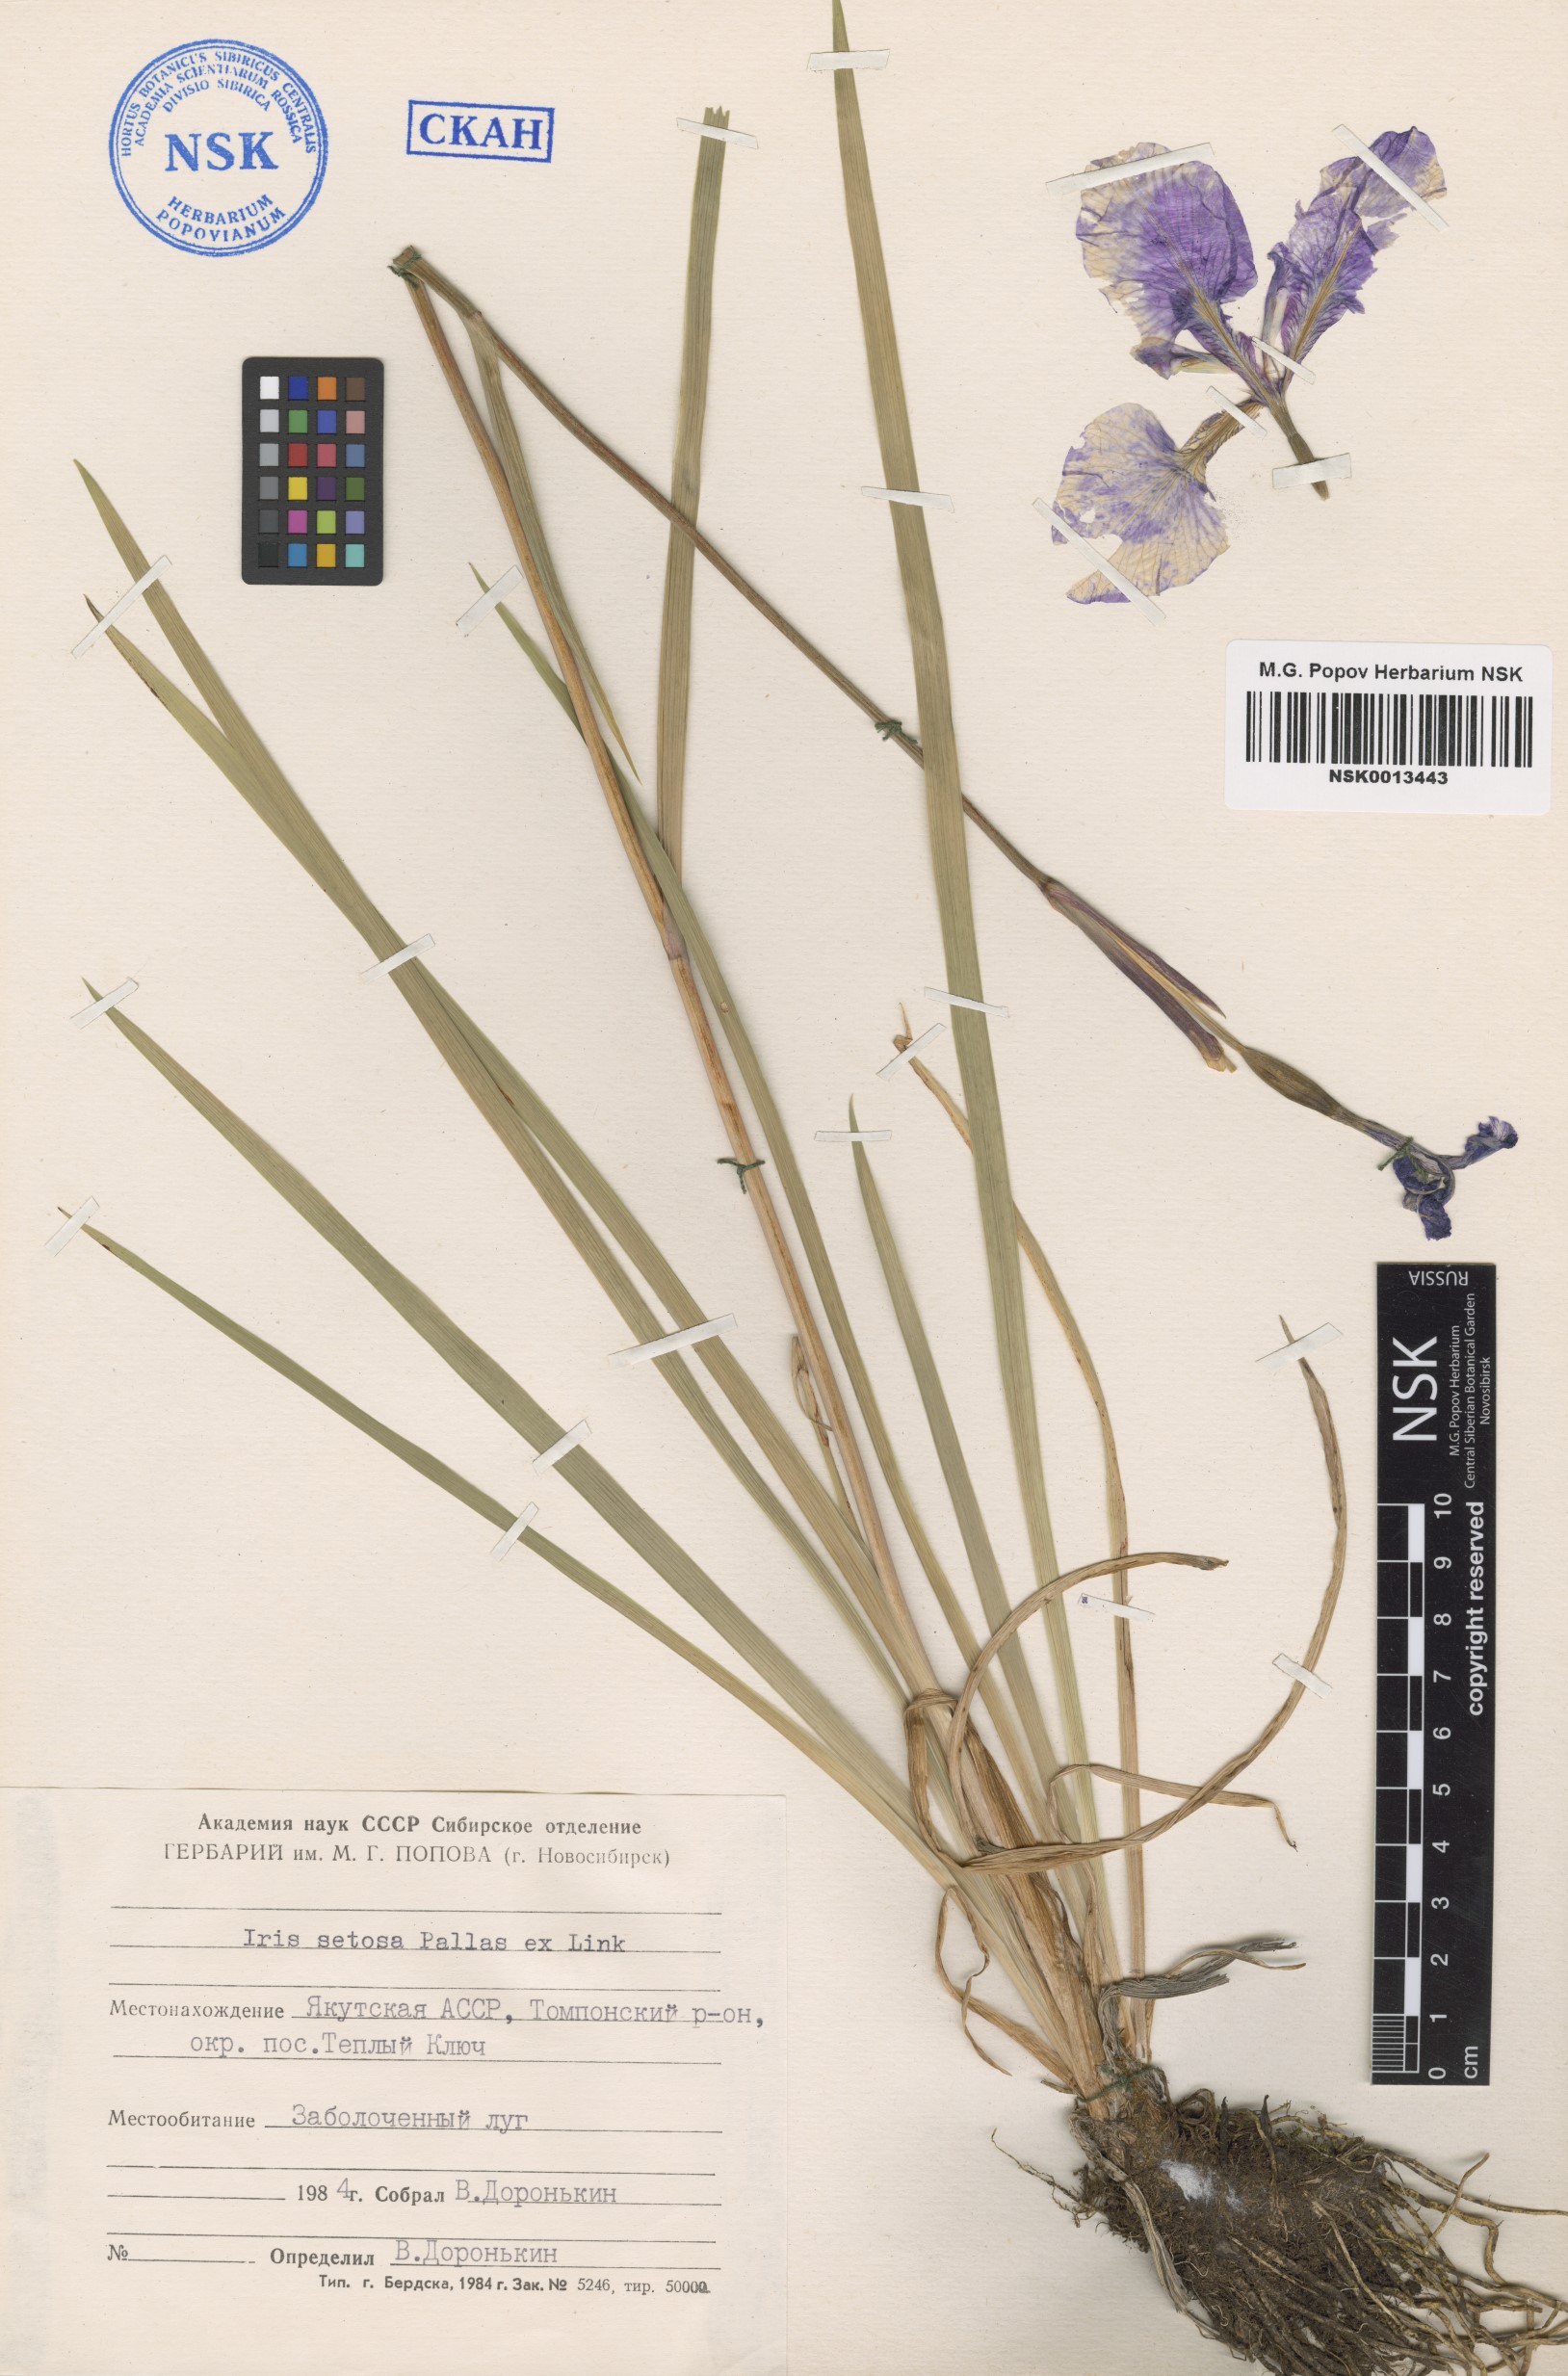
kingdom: Plantae
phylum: Tracheophyta
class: Liliopsida
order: Asparagales
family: Iridaceae
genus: Iris
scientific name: Iris setosa
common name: Arctic blue flag
